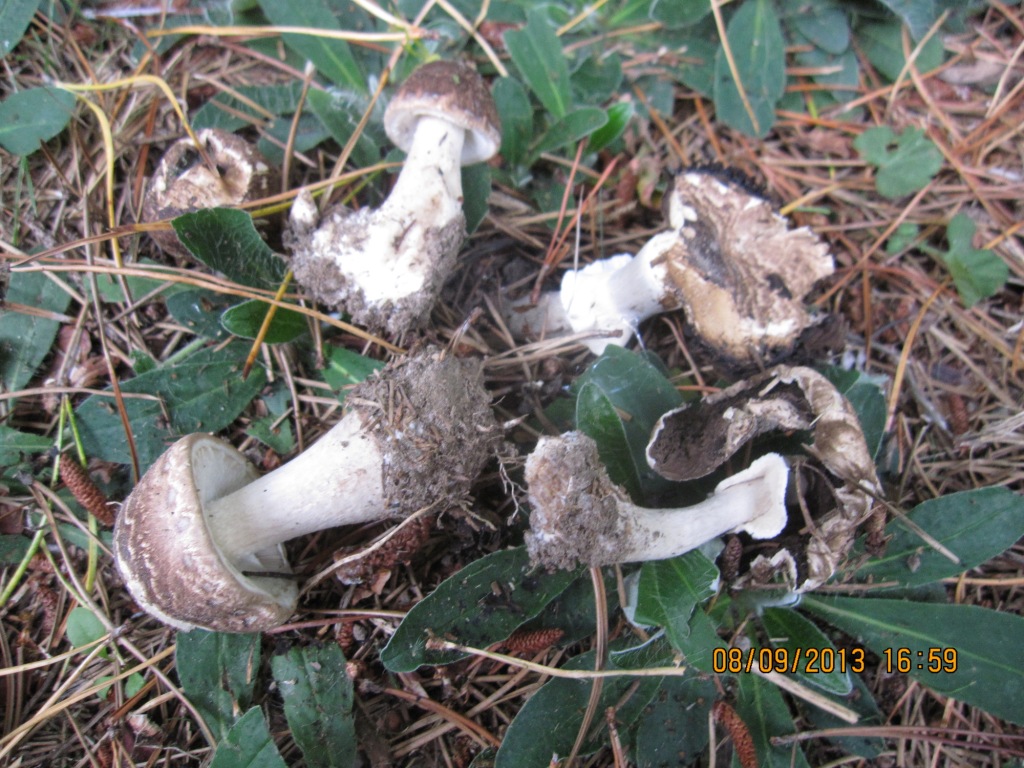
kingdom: Fungi
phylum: Basidiomycota
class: Agaricomycetes
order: Agaricales
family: Agaricaceae
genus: Agaricus
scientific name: Agaricus impudicus
